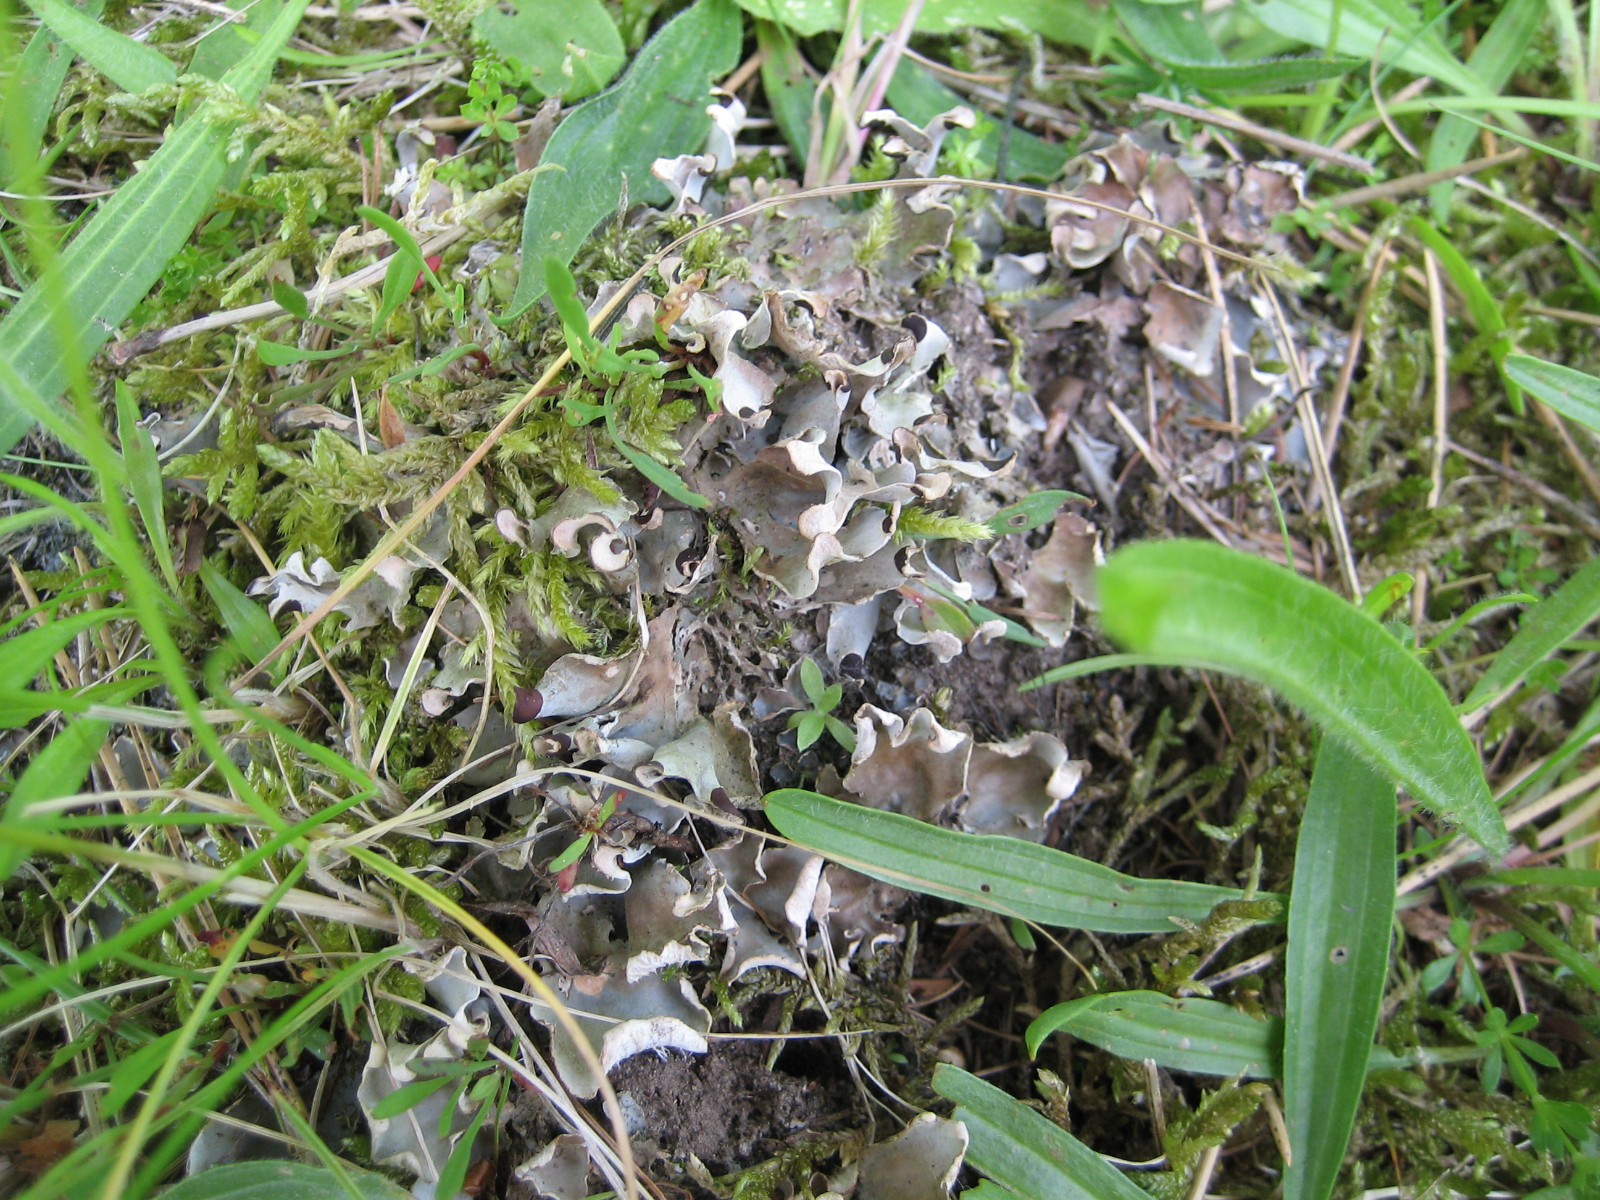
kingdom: Fungi
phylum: Ascomycota
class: Lecanoromycetes
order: Peltigerales
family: Peltigeraceae
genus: Peltigera
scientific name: Peltigera didactyla
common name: liden skjoldlav
